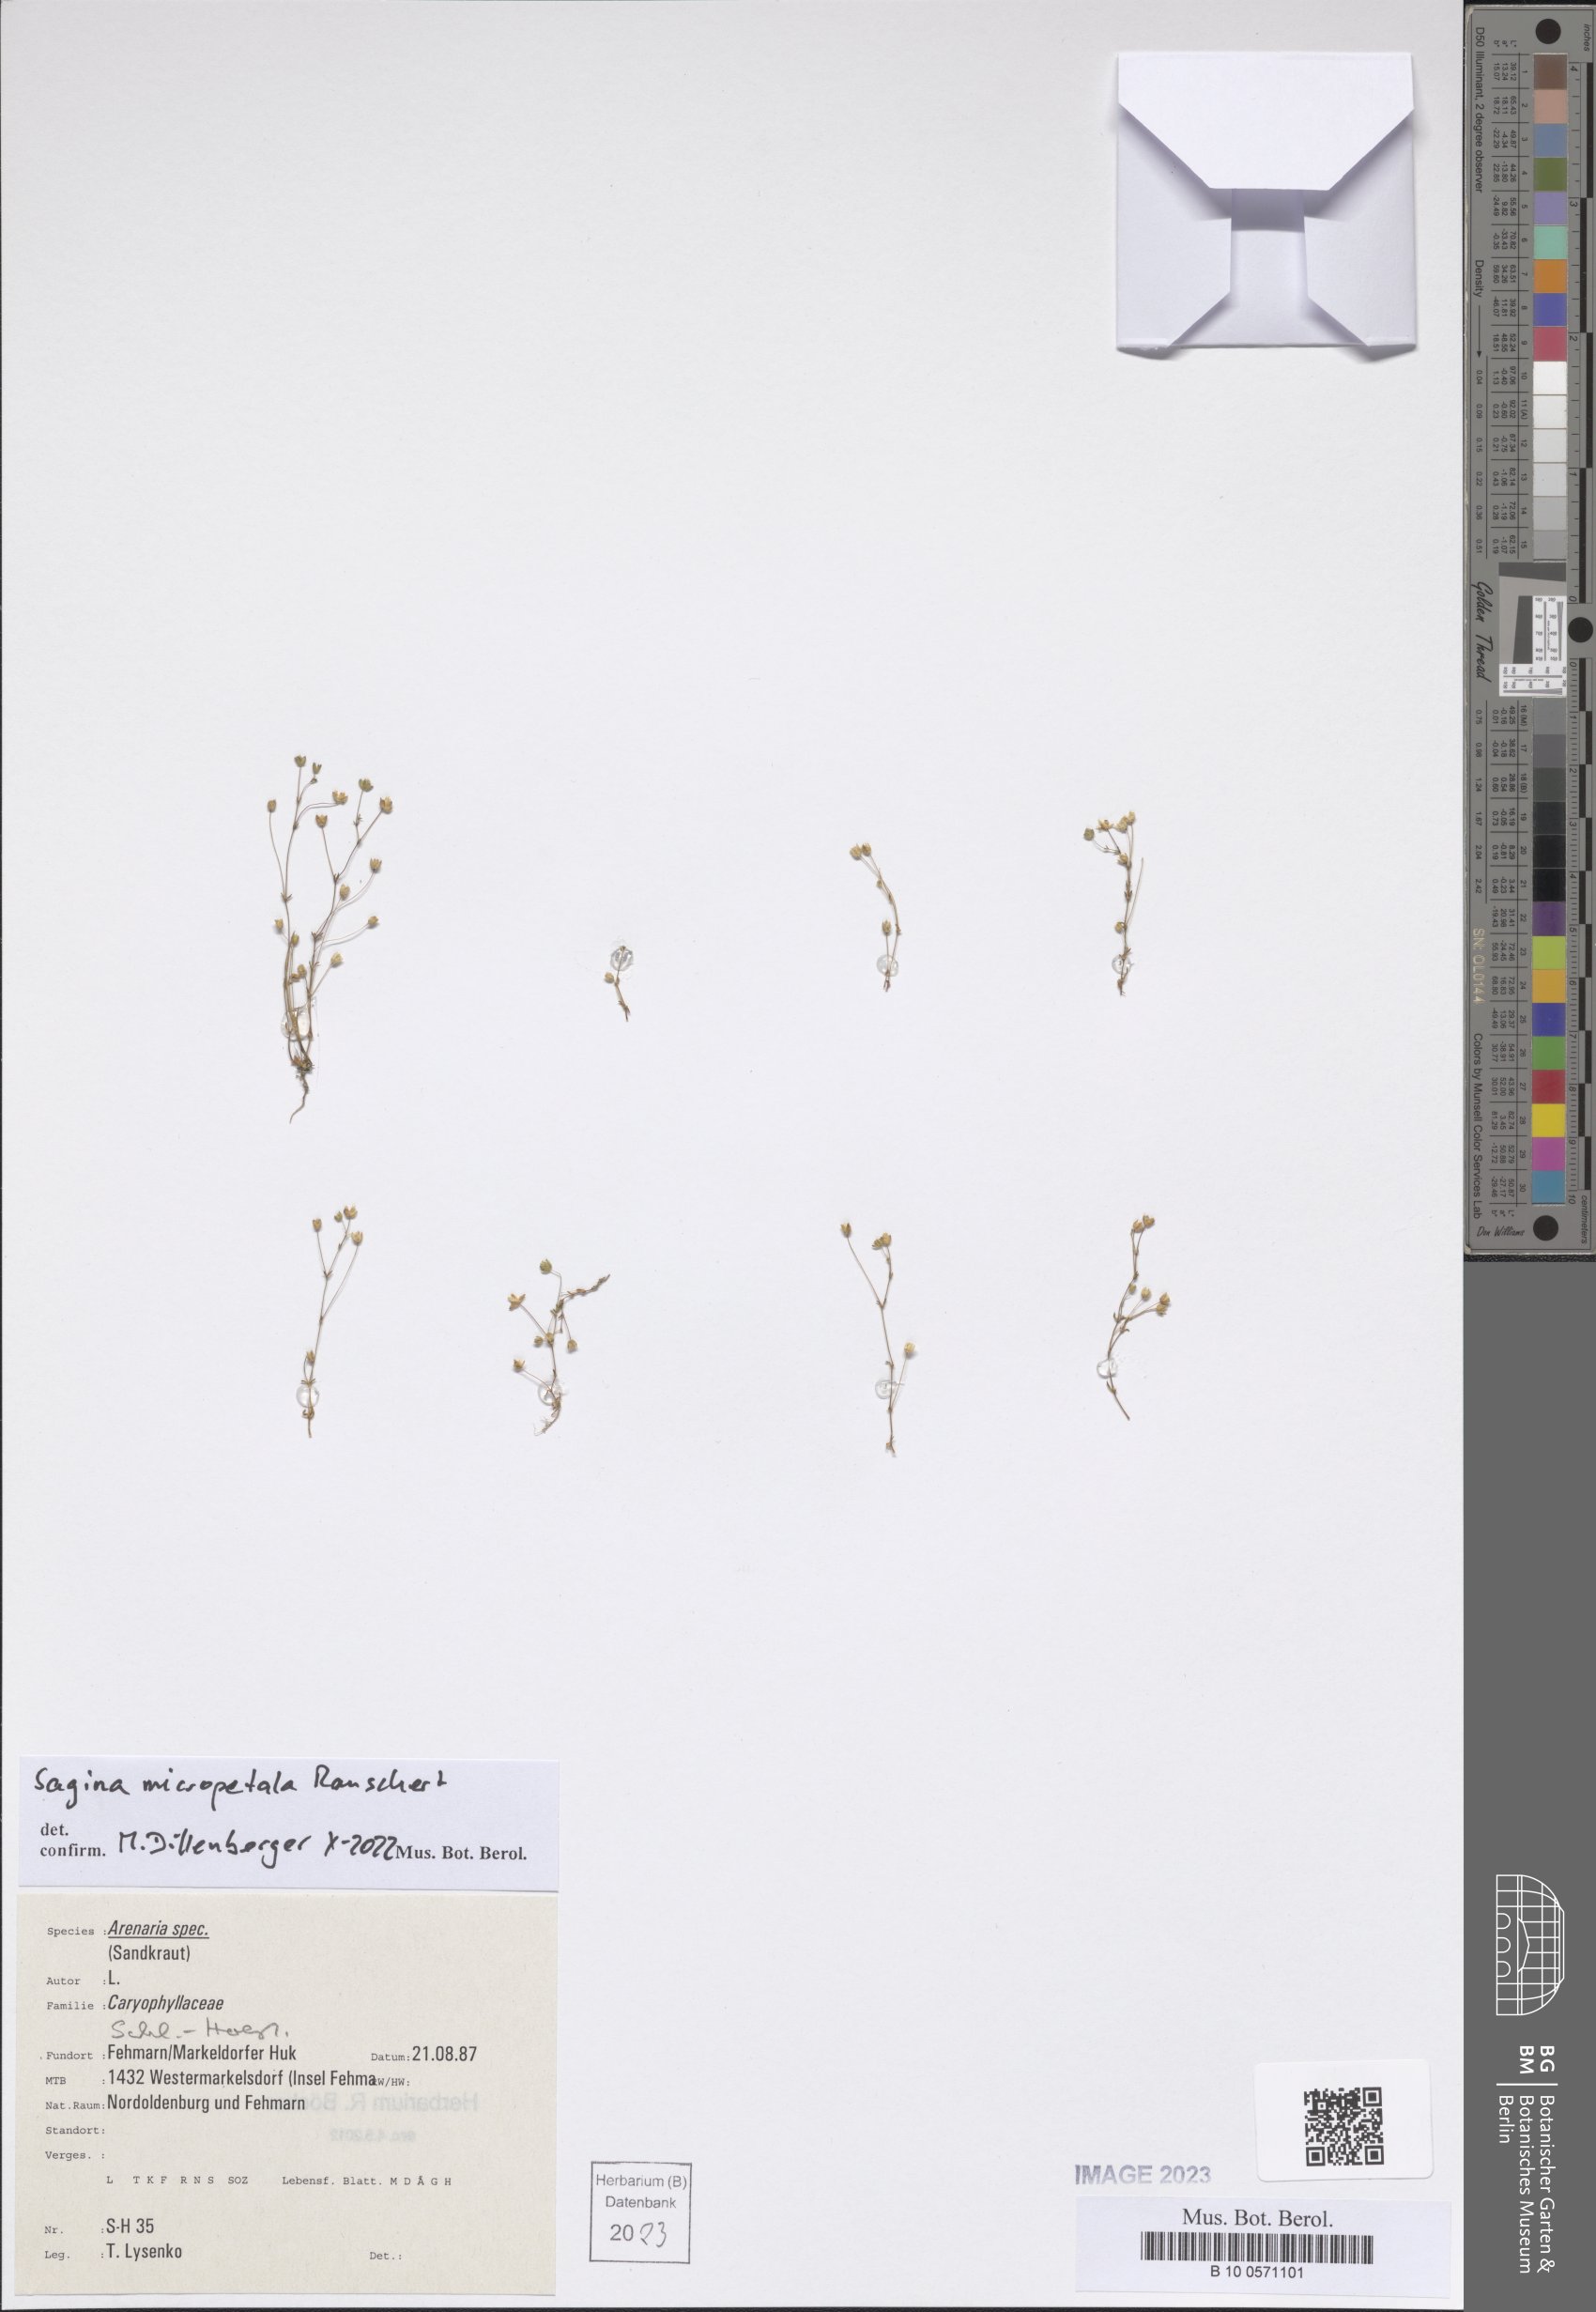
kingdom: Plantae
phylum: Tracheophyta
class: Magnoliopsida
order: Caryophyllales
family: Caryophyllaceae
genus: Sagina
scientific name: Sagina micropetala
